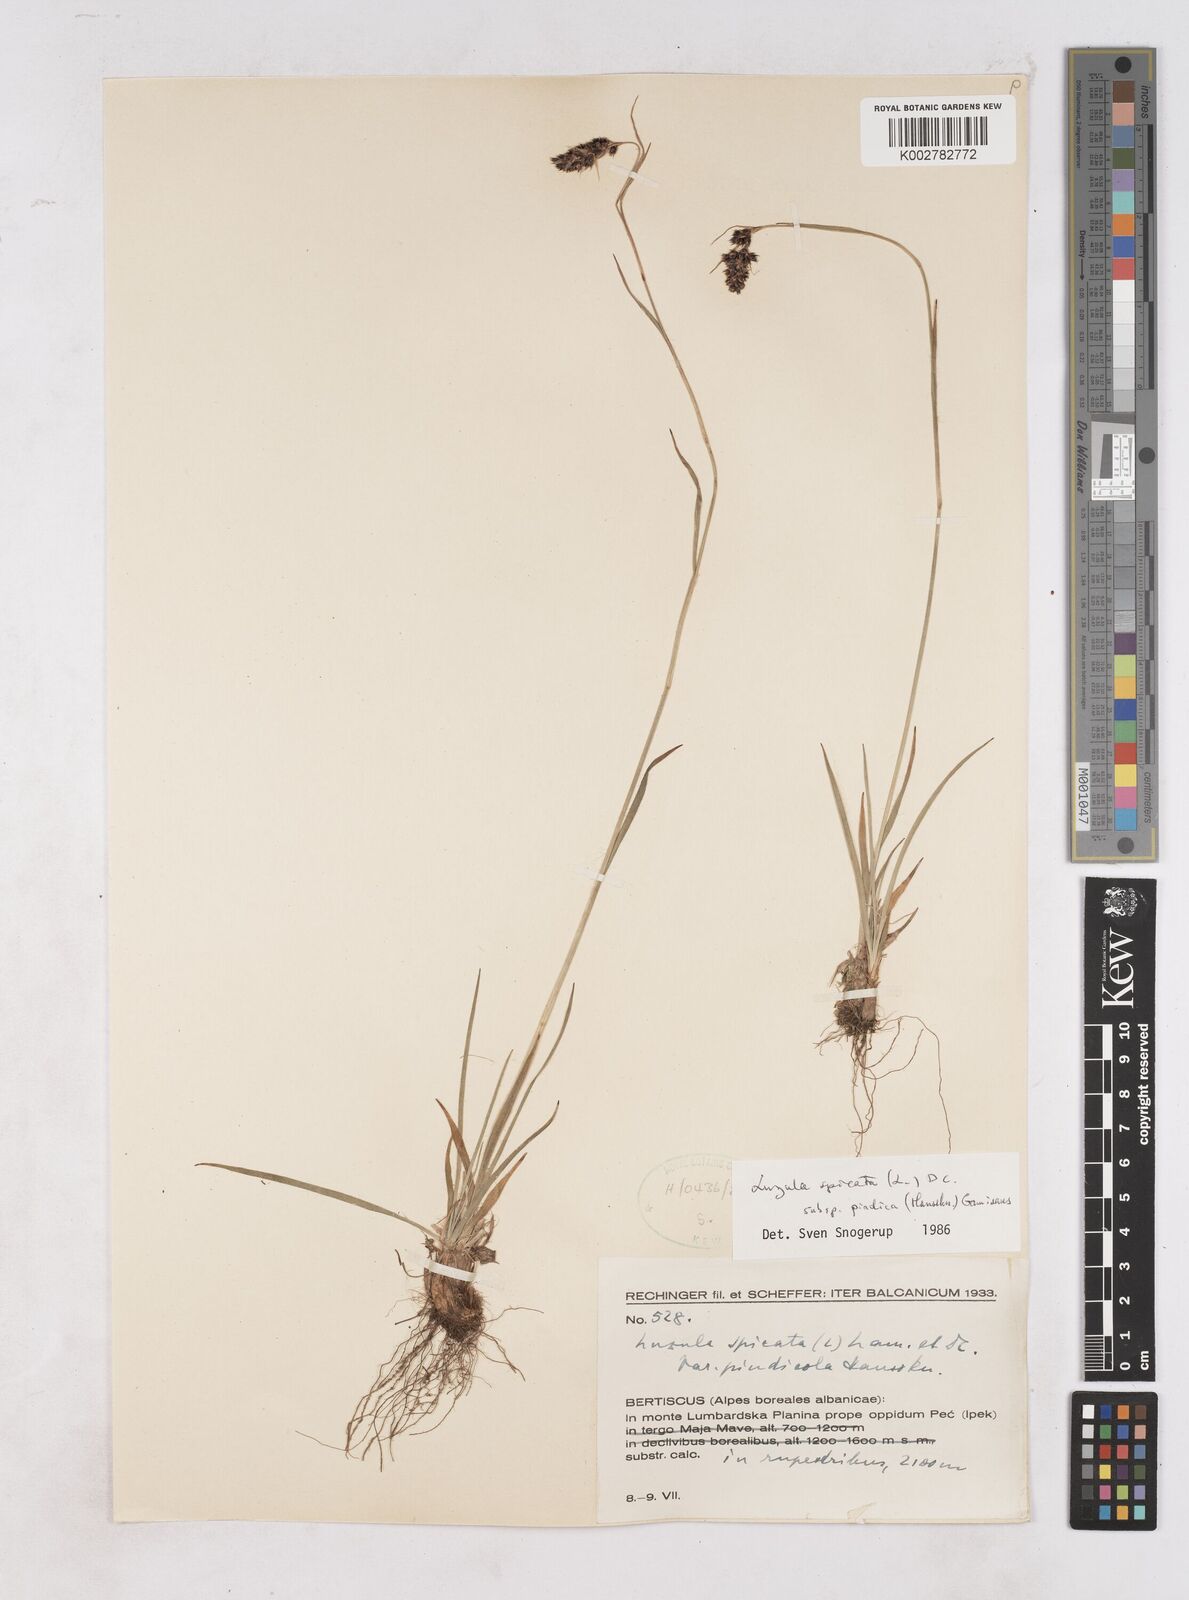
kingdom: Plantae
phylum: Tracheophyta
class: Liliopsida
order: Poales
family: Juncaceae
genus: Luzula
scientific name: Luzula pindica
